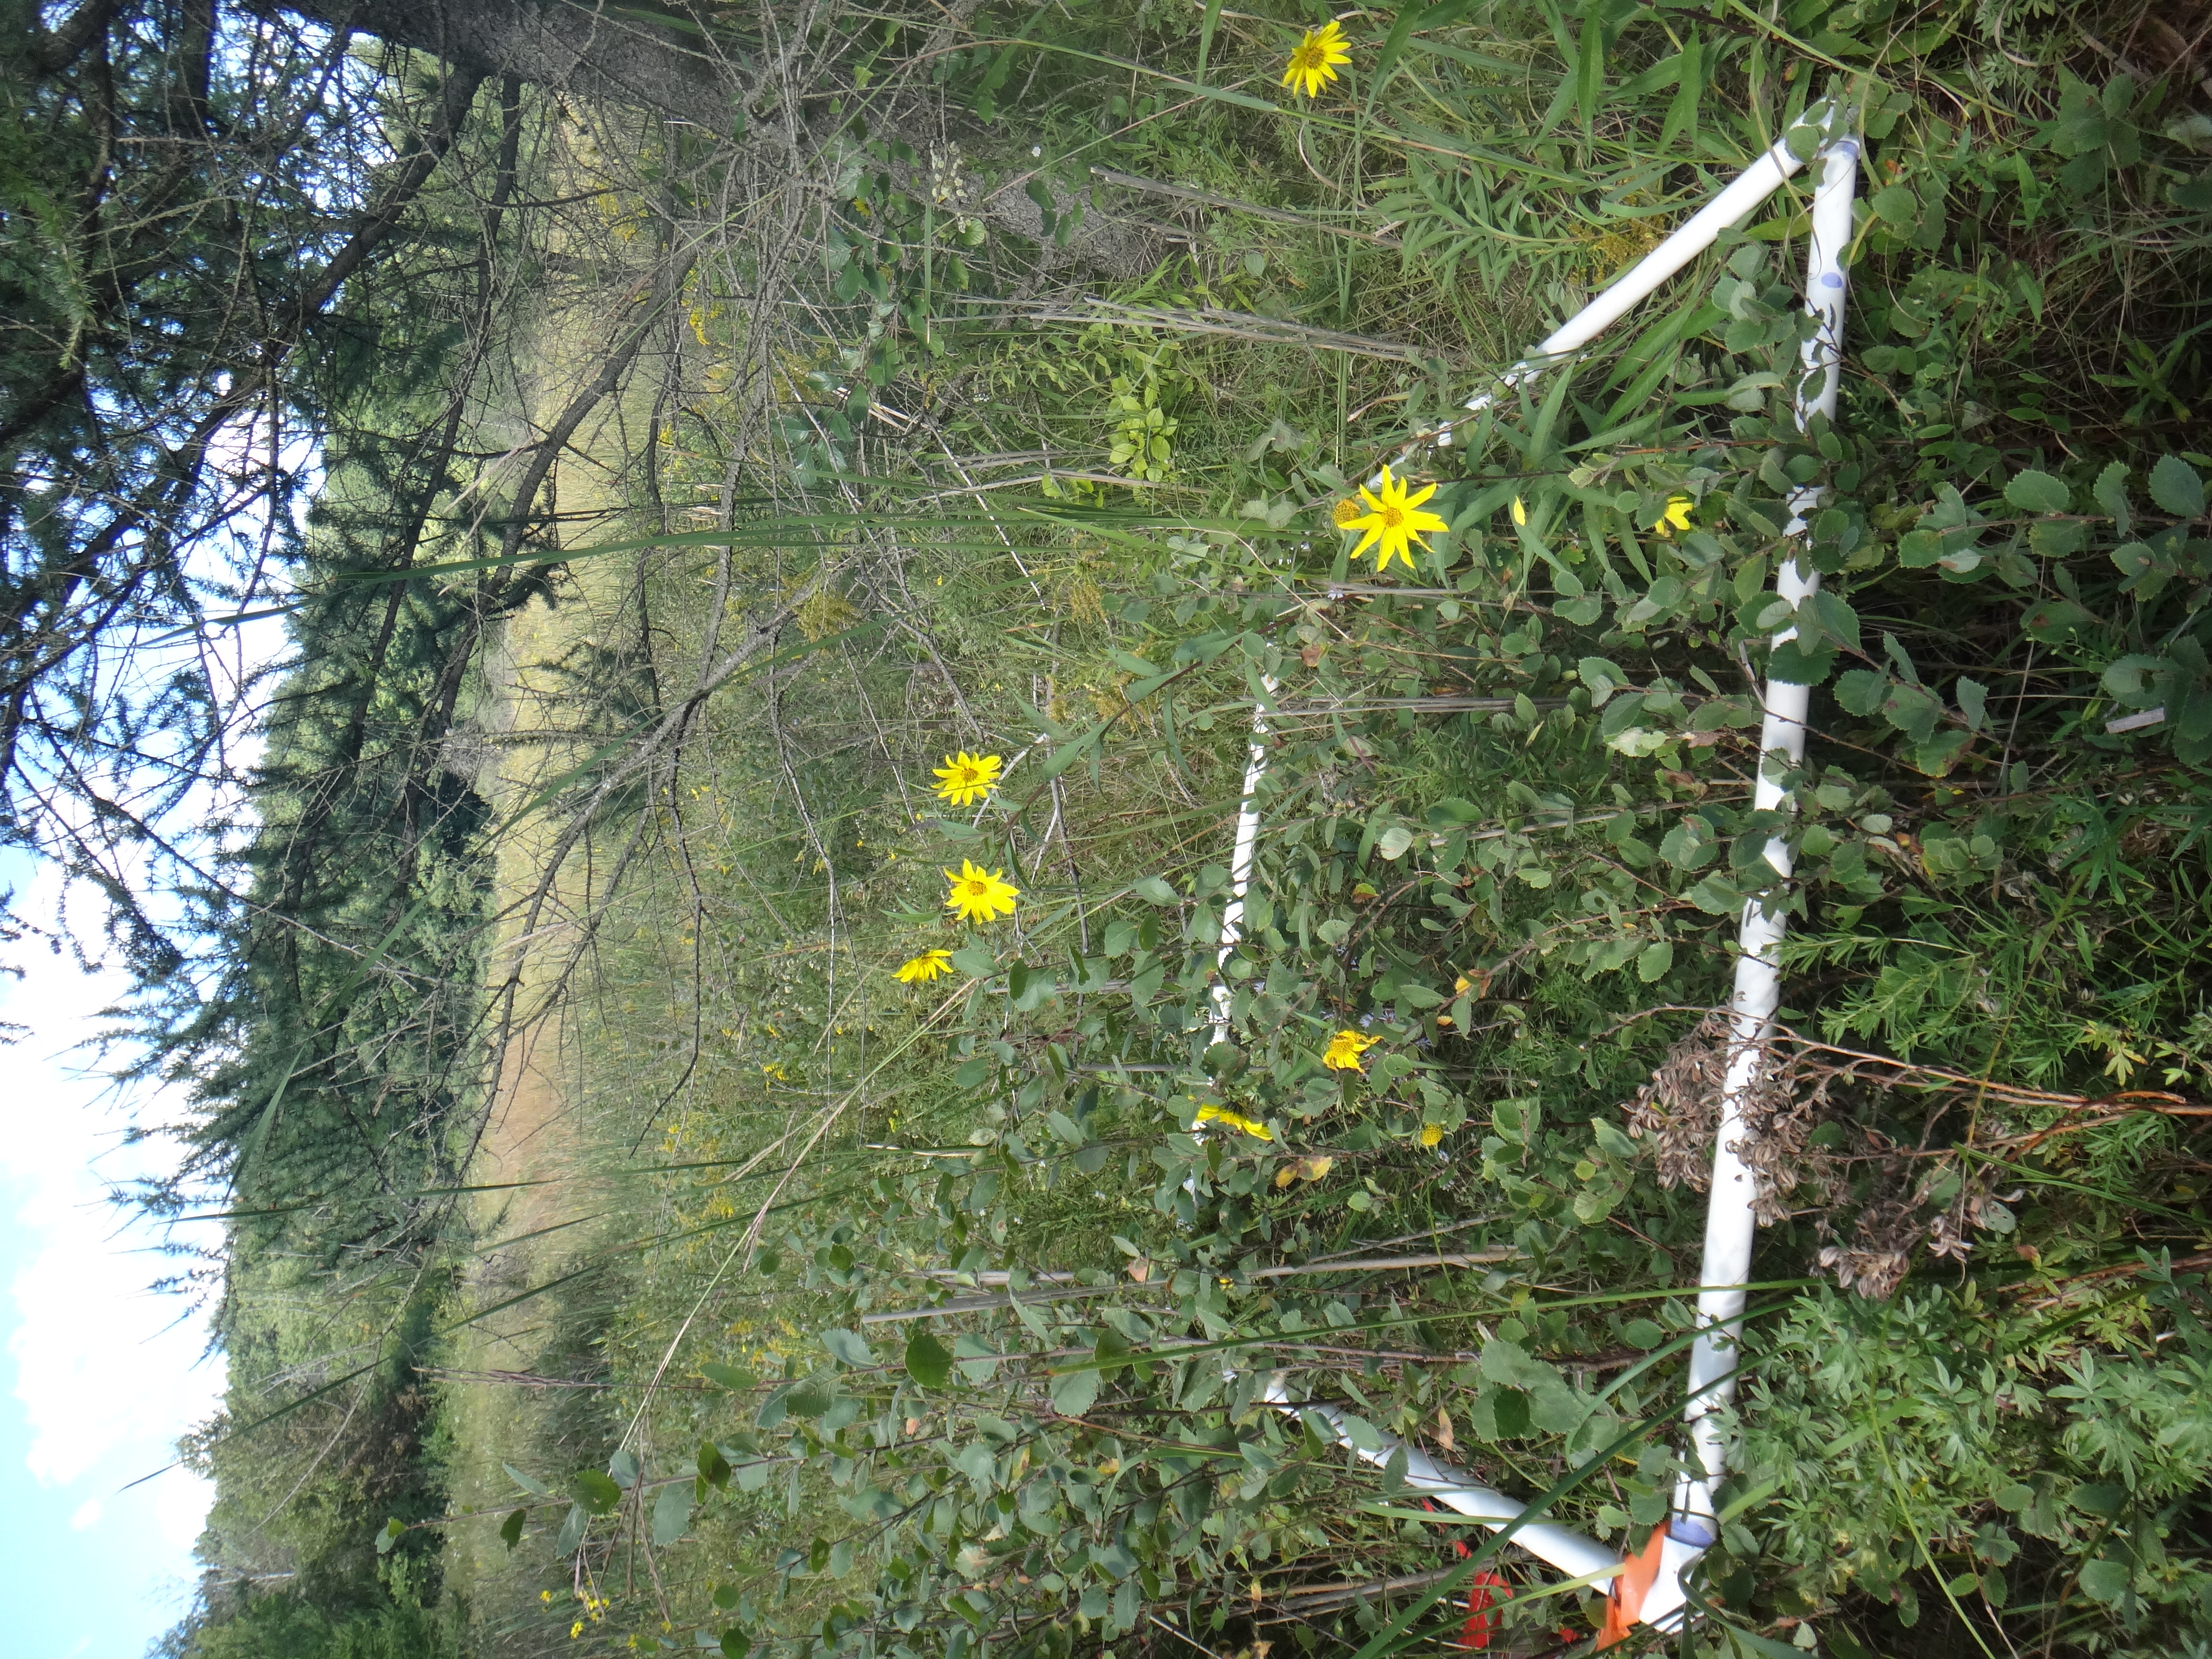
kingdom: Plantae
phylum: Tracheophyta
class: Liliopsida
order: Poales
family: Poaceae
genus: Andropogon
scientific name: Andropogon gerardi
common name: Big bluestem
